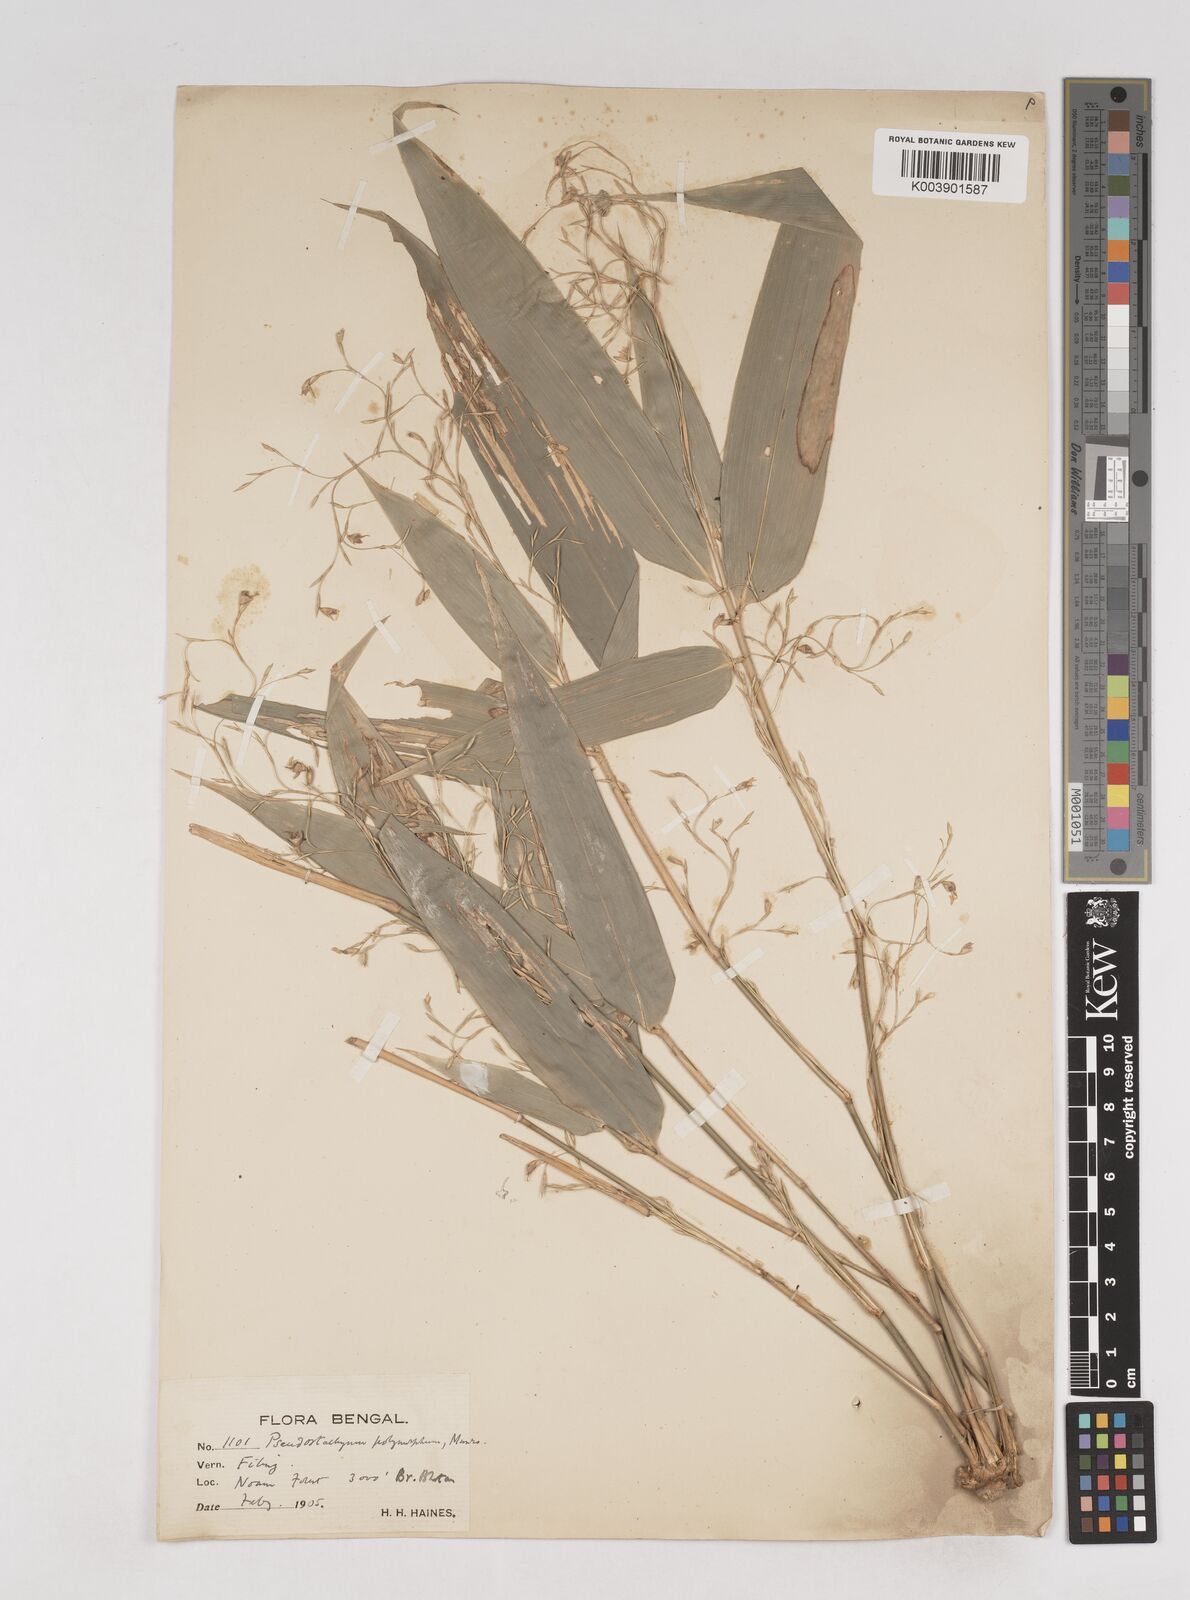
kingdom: Plantae
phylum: Tracheophyta
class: Liliopsida
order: Poales
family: Poaceae
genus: Pseudostachyum
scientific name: Pseudostachyum polymorphum
